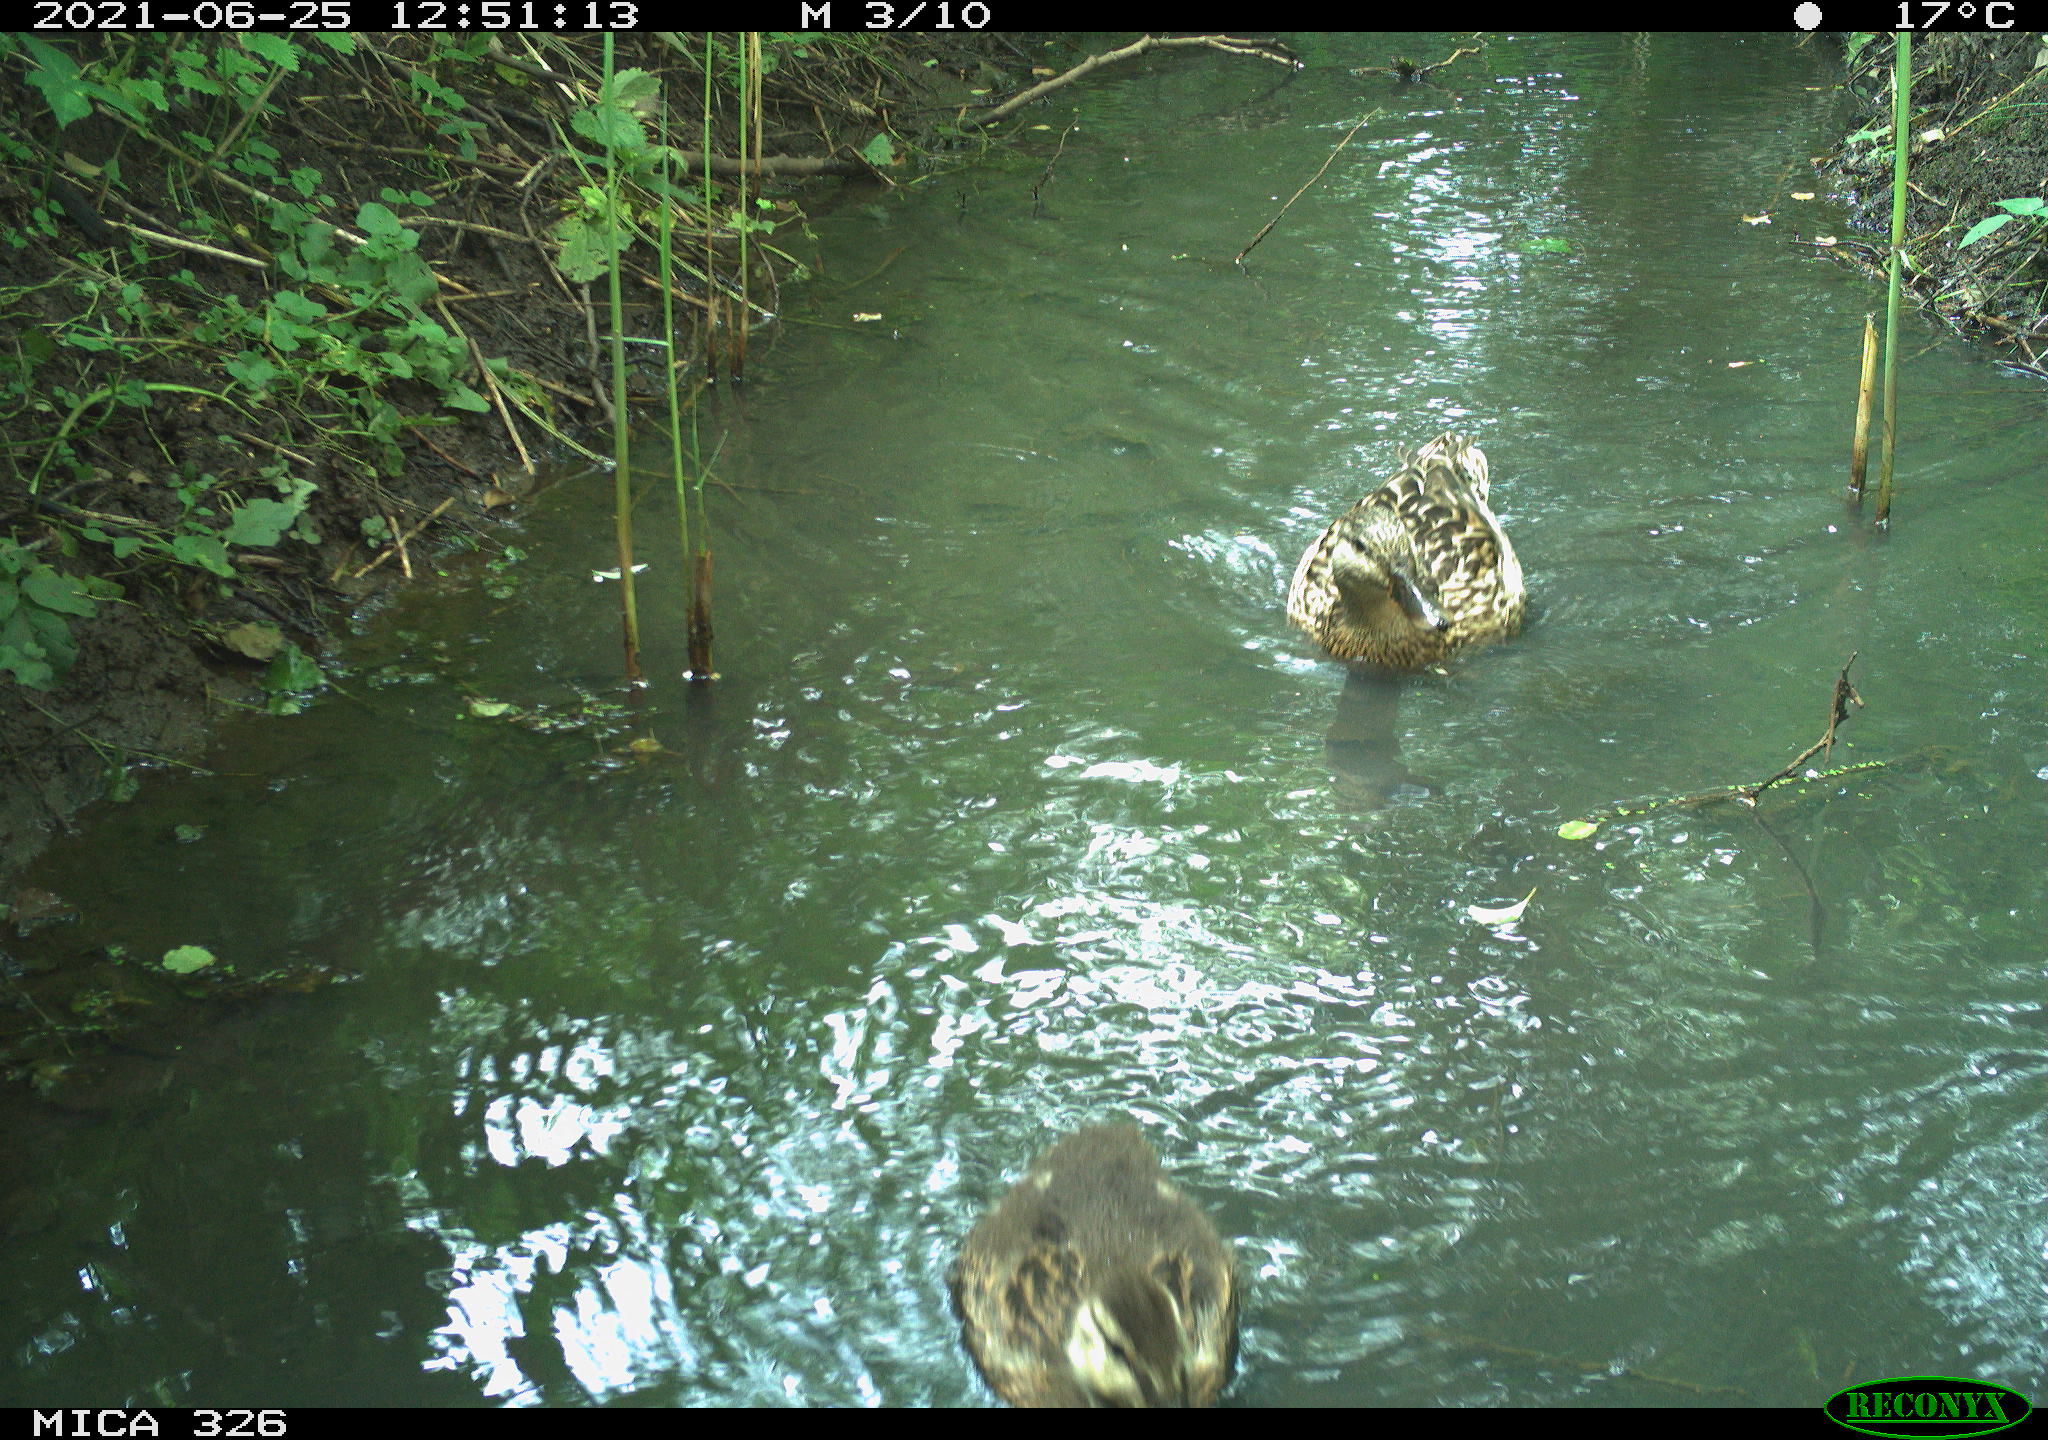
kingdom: Animalia
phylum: Chordata
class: Aves
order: Anseriformes
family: Anatidae
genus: Anas
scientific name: Anas platyrhynchos
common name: Mallard
